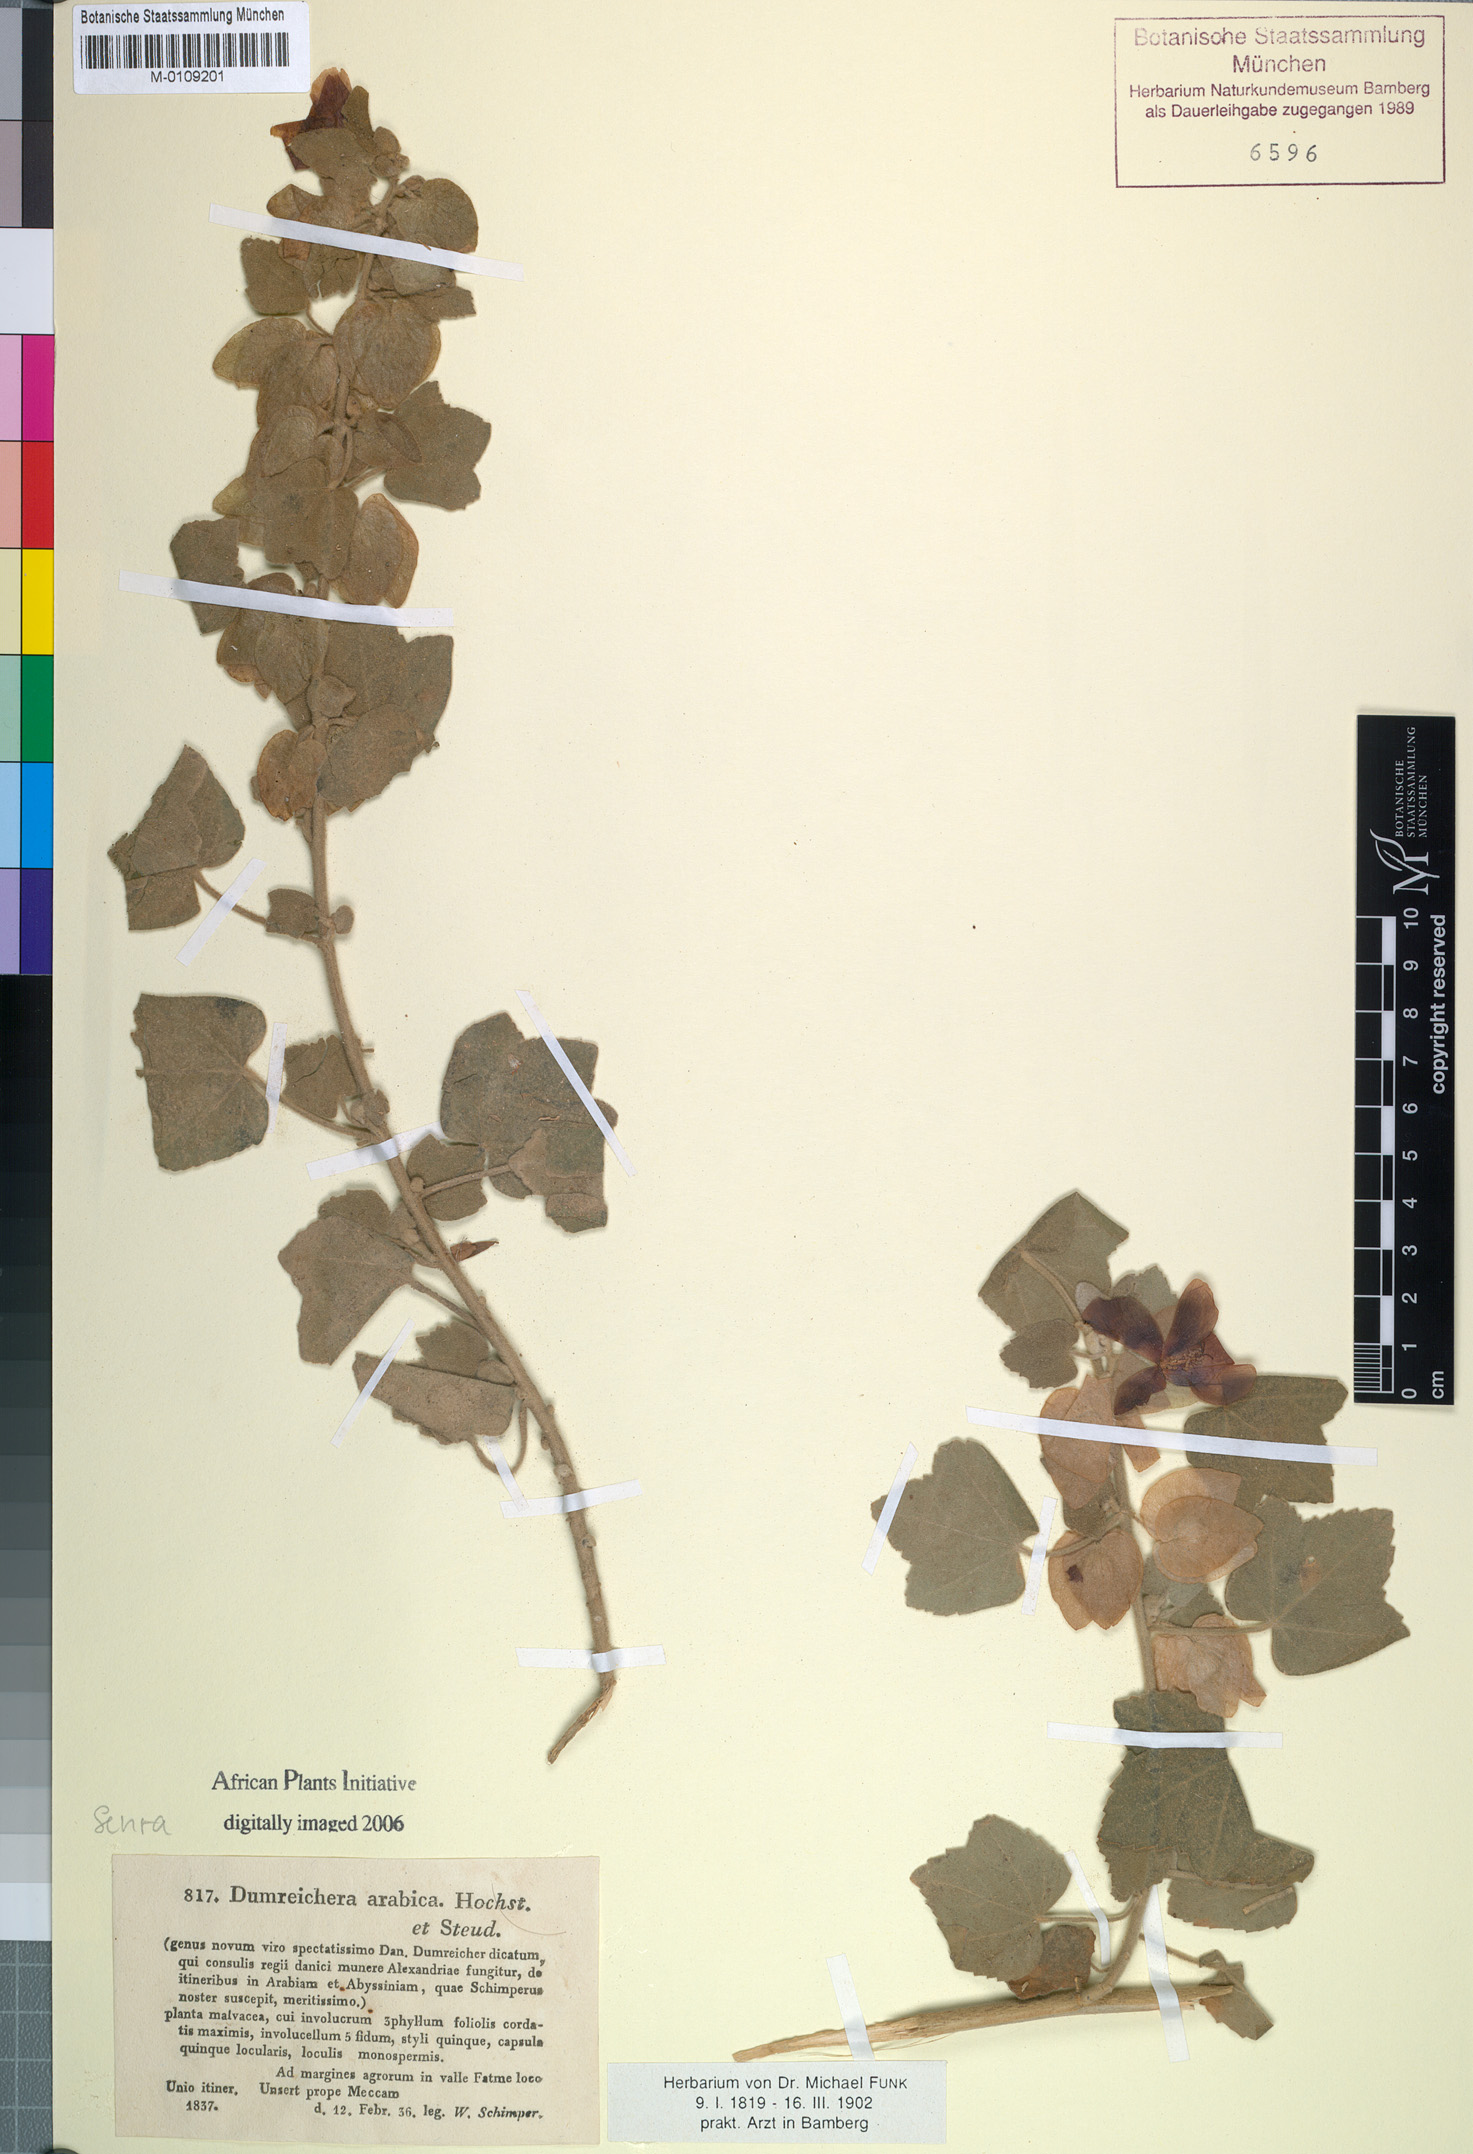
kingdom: Plantae
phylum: Tracheophyta
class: Magnoliopsida
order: Malvales
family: Malvaceae
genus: Senra
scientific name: Senra incana
